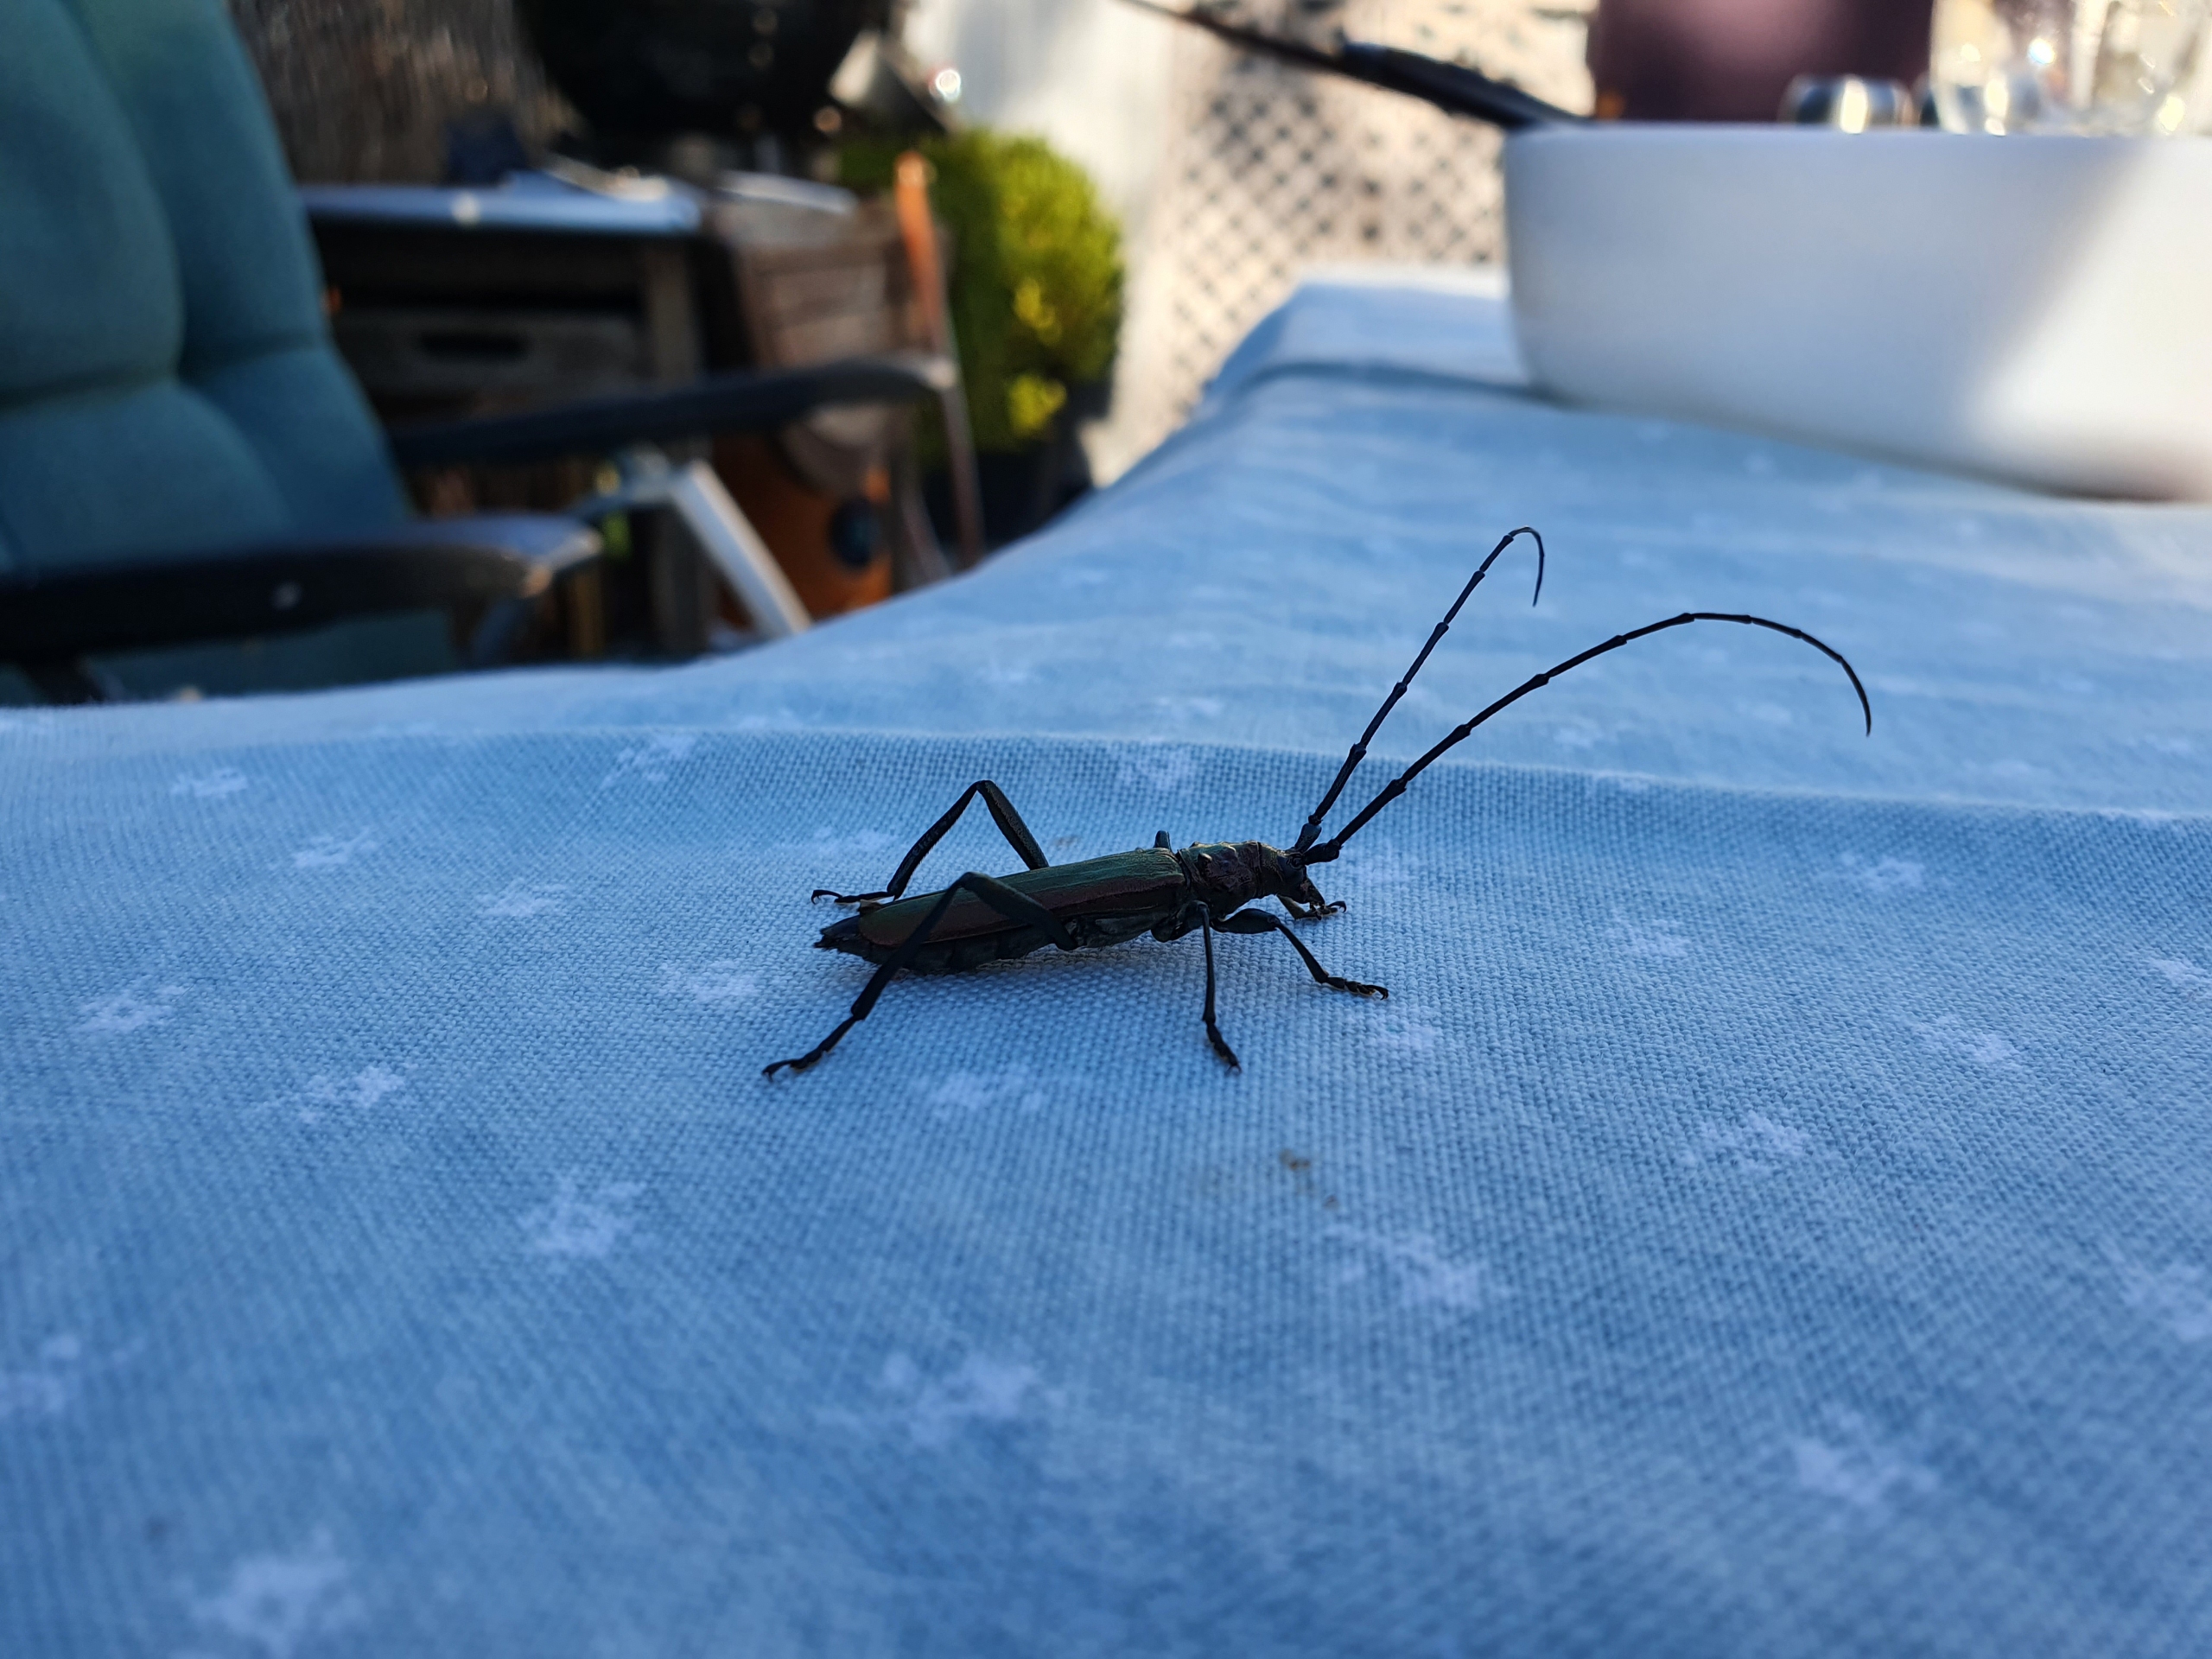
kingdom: Animalia
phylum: Arthropoda
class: Insecta
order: Coleoptera
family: Cerambycidae
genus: Aromia
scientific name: Aromia moschata
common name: Moskusbuk
